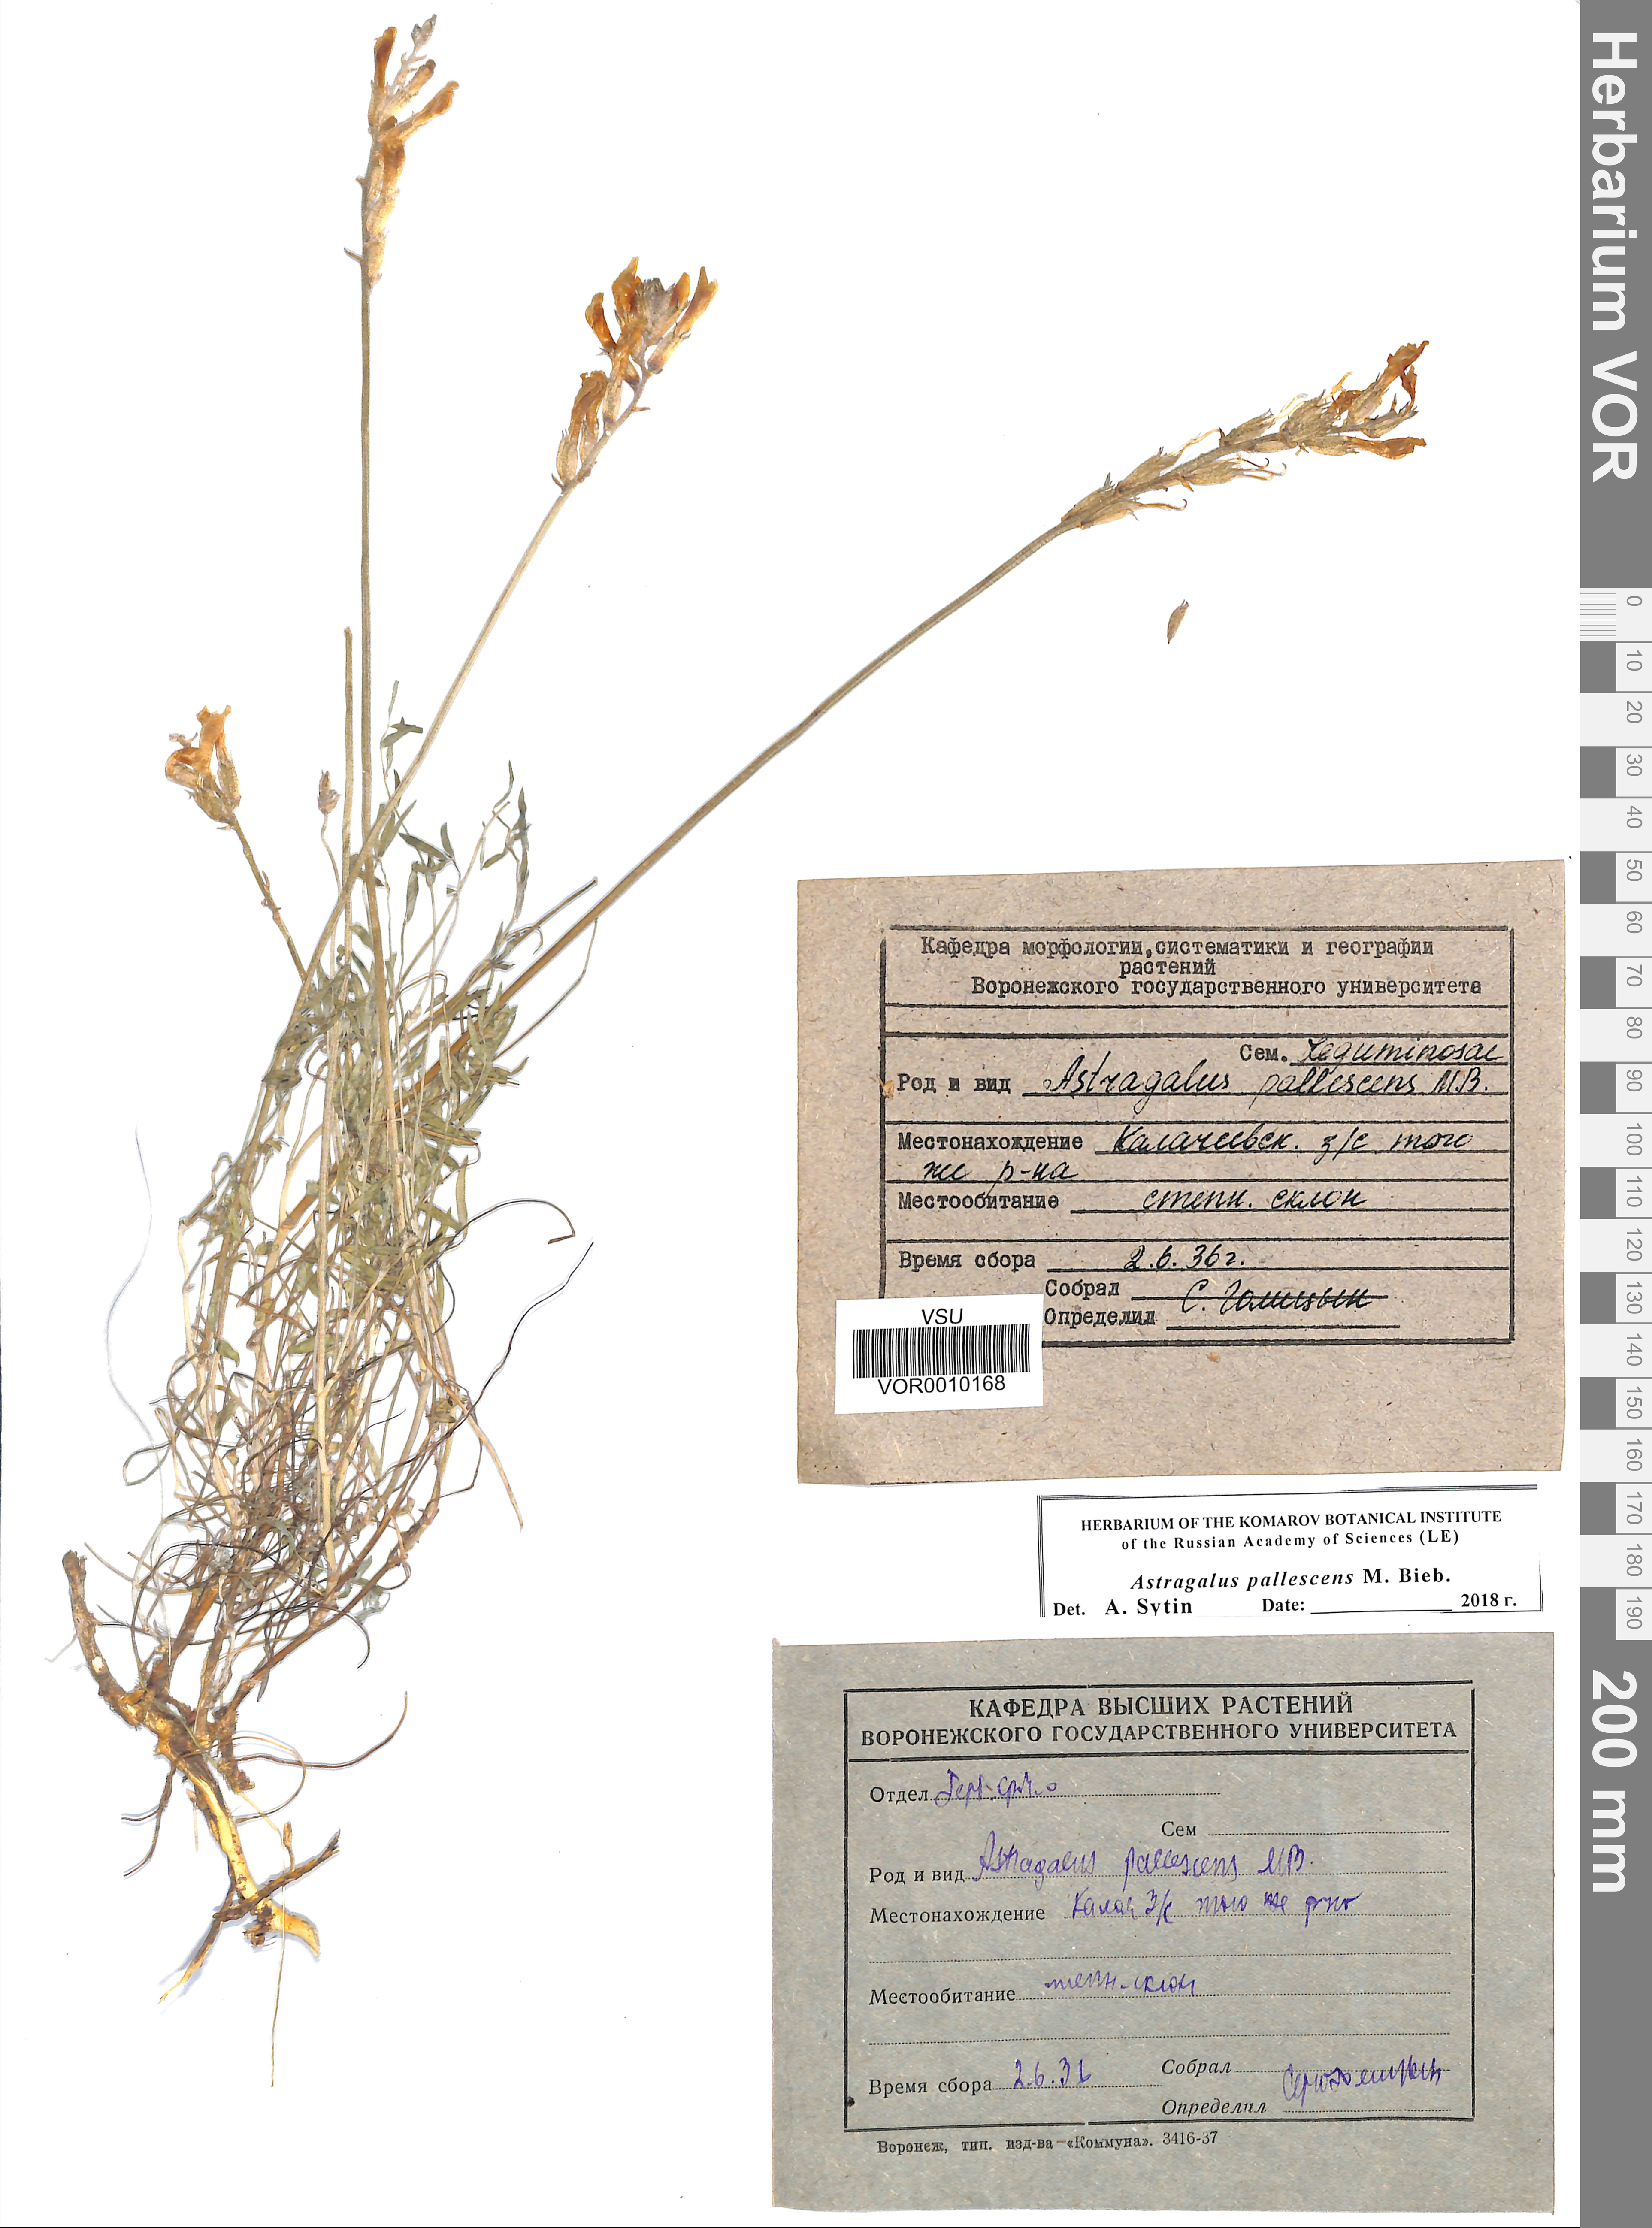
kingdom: Plantae
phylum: Tracheophyta
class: Magnoliopsida
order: Fabales
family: Fabaceae
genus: Astragalus
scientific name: Astragalus pallescens
